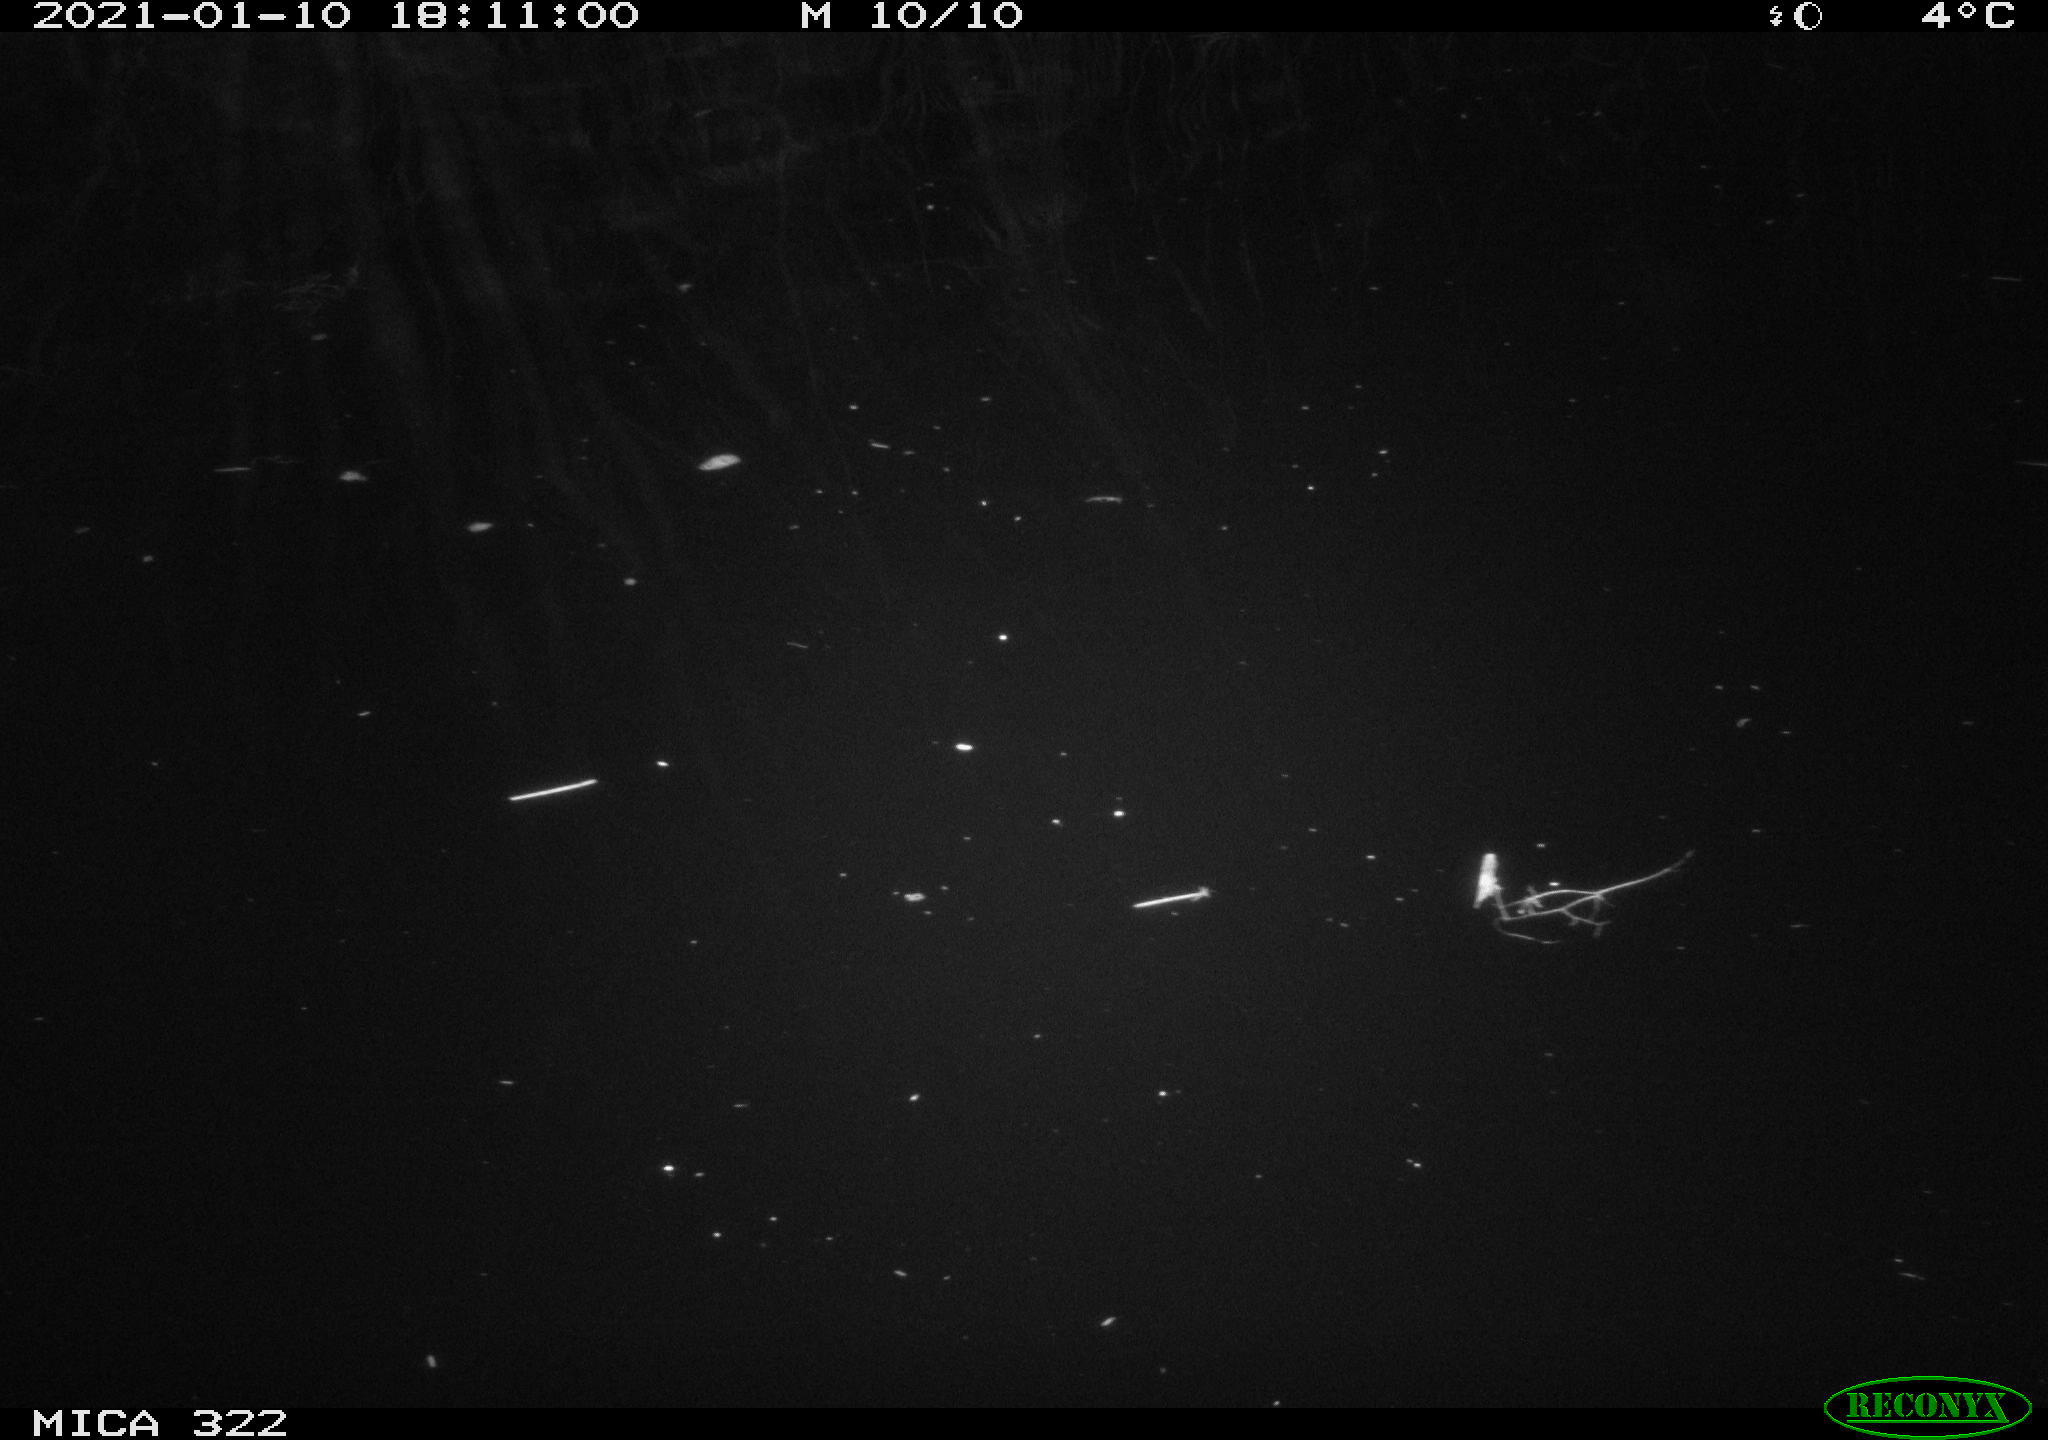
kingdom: Animalia
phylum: Chordata
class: Aves
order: Gruiformes
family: Rallidae
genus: Fulica
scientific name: Fulica atra
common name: Eurasian coot
